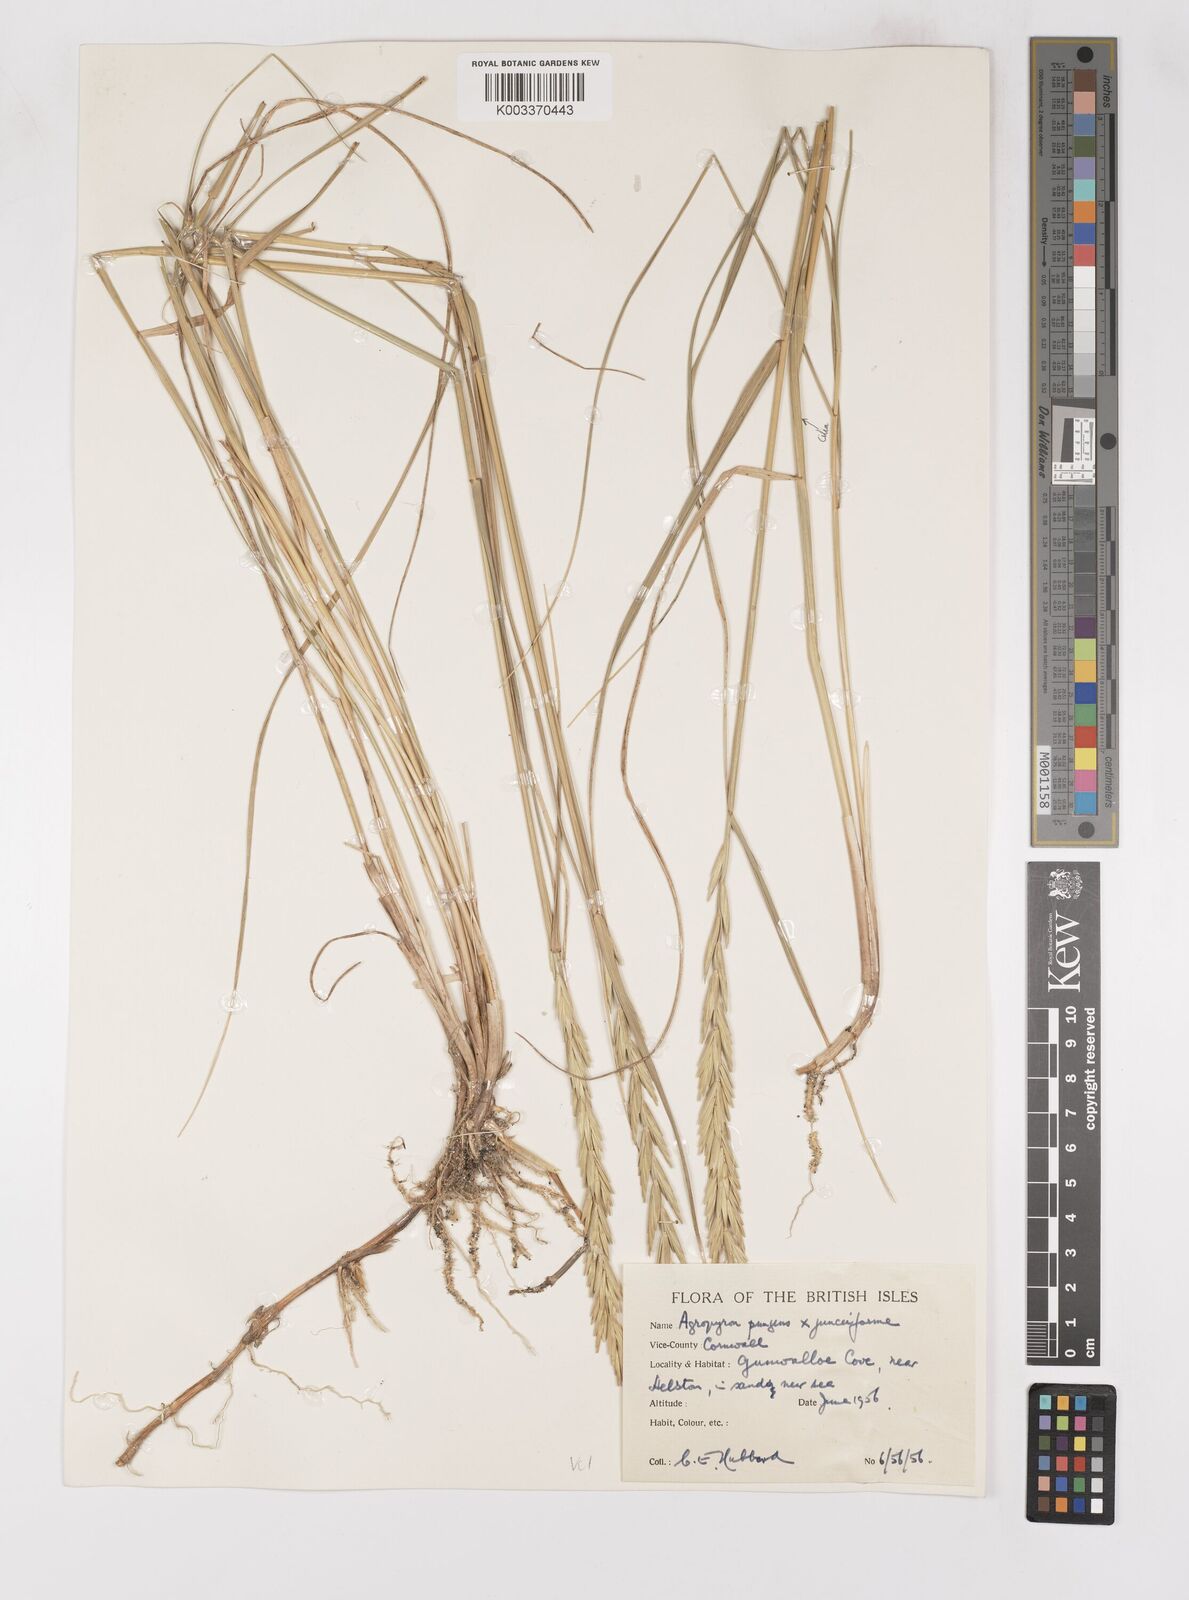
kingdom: Plantae
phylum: Tracheophyta
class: Liliopsida
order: Poales
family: Poaceae
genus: Thinoelymus
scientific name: Thinoelymus obtusiusculus
